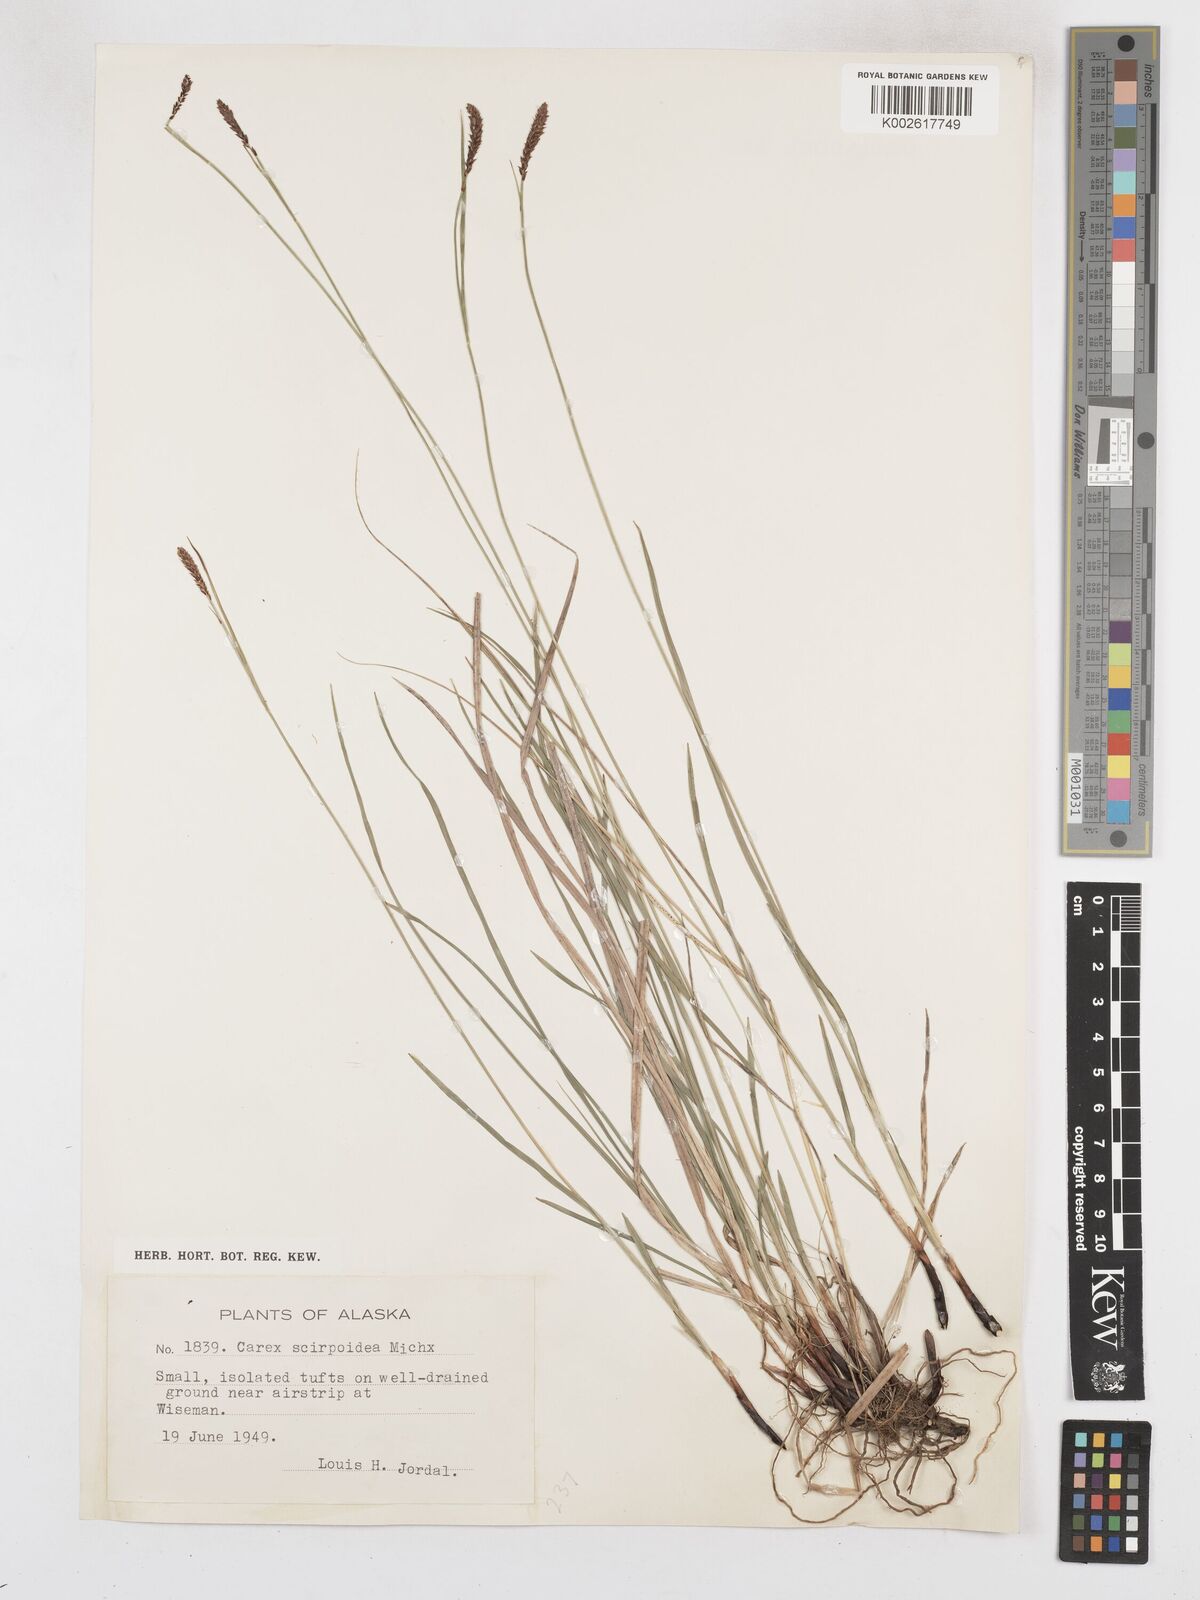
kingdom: Plantae
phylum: Tracheophyta
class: Liliopsida
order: Poales
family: Cyperaceae
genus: Carex
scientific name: Carex scirpoidea
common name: Canada single-spike sedge
